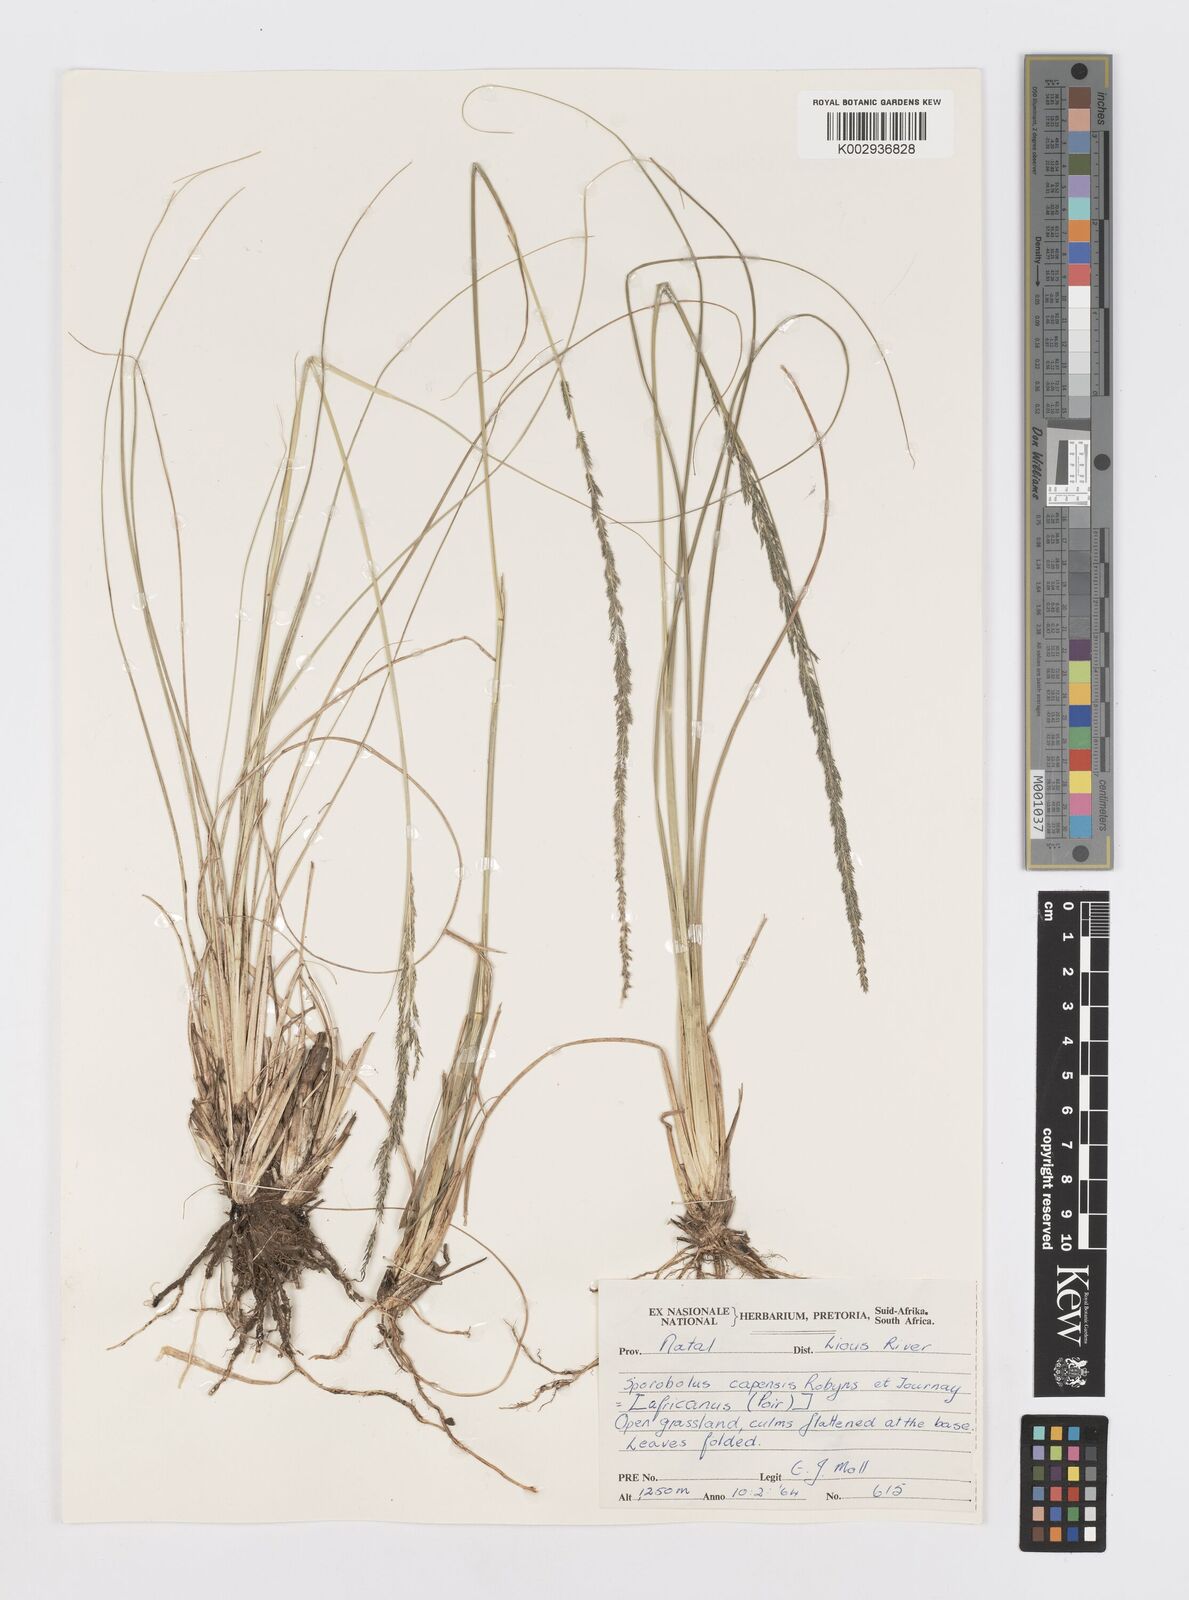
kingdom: Plantae
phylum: Tracheophyta
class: Liliopsida
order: Poales
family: Poaceae
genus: Sporobolus
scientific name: Sporobolus africanus
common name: African dropseed
